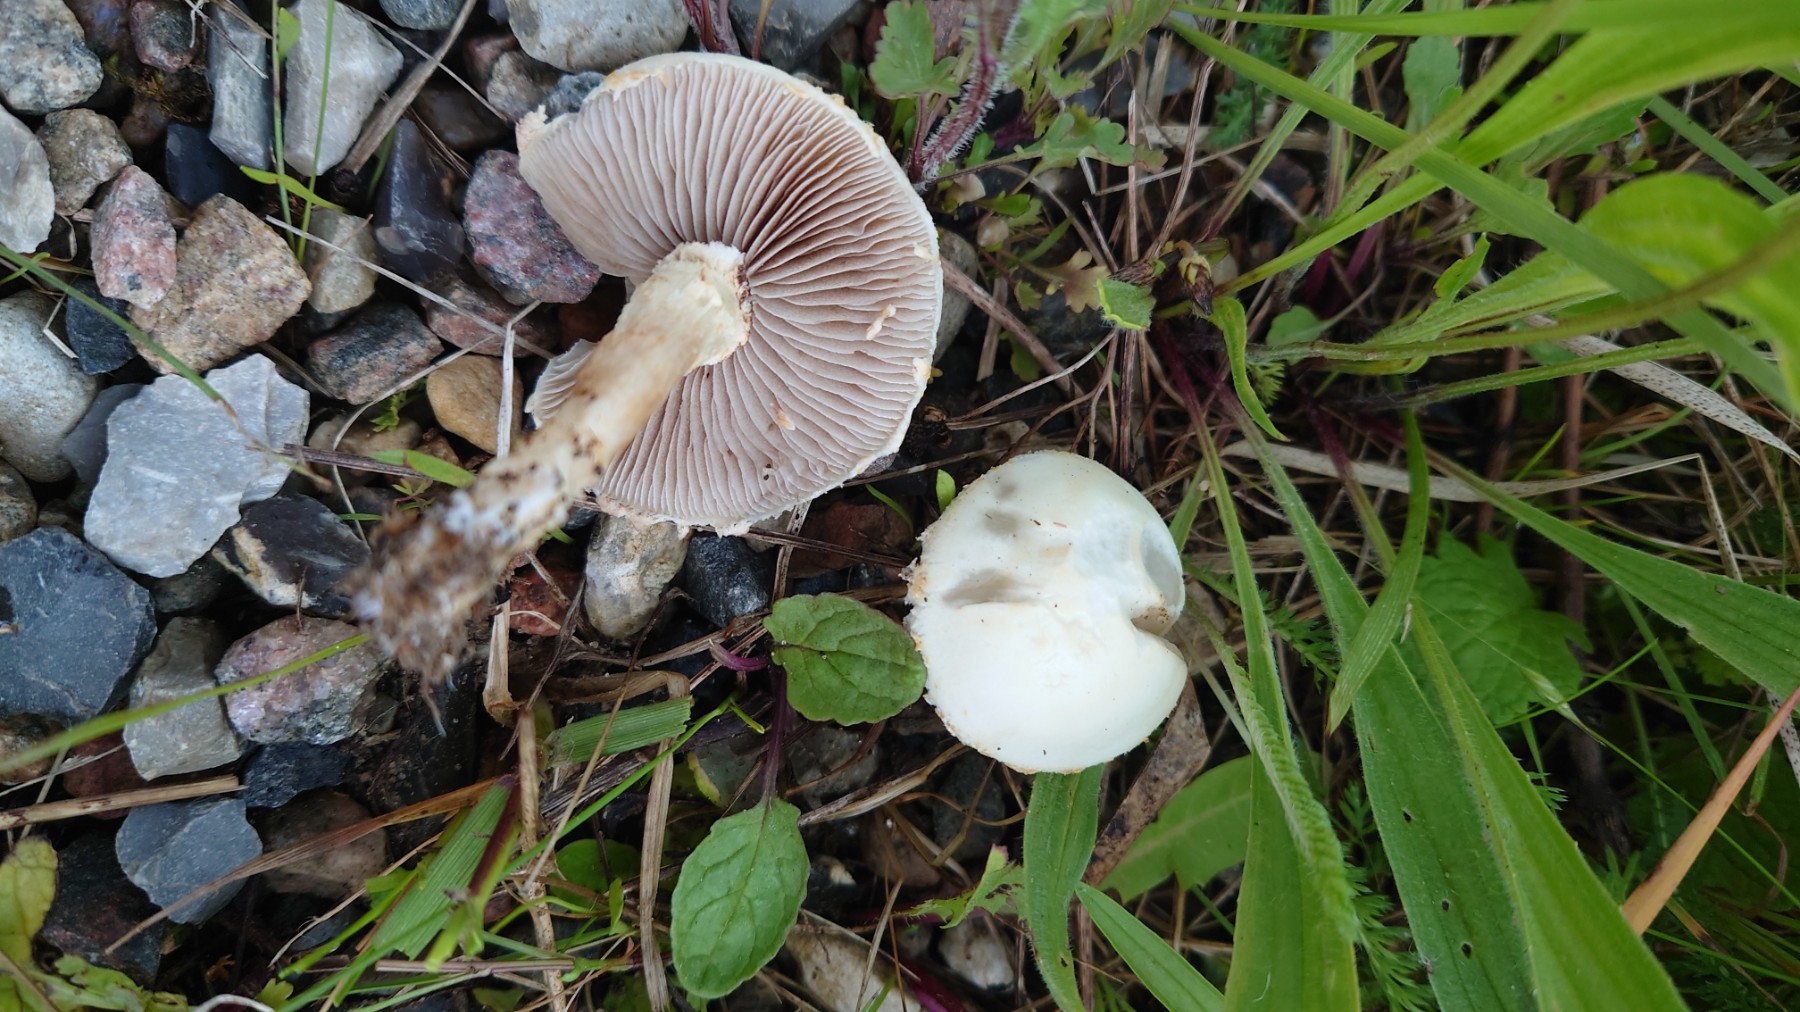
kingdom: Fungi
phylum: Basidiomycota
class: Agaricomycetes
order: Agaricales
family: Strophariaceae
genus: Agrocybe
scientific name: Agrocybe praecox
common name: tidlig agerhat
